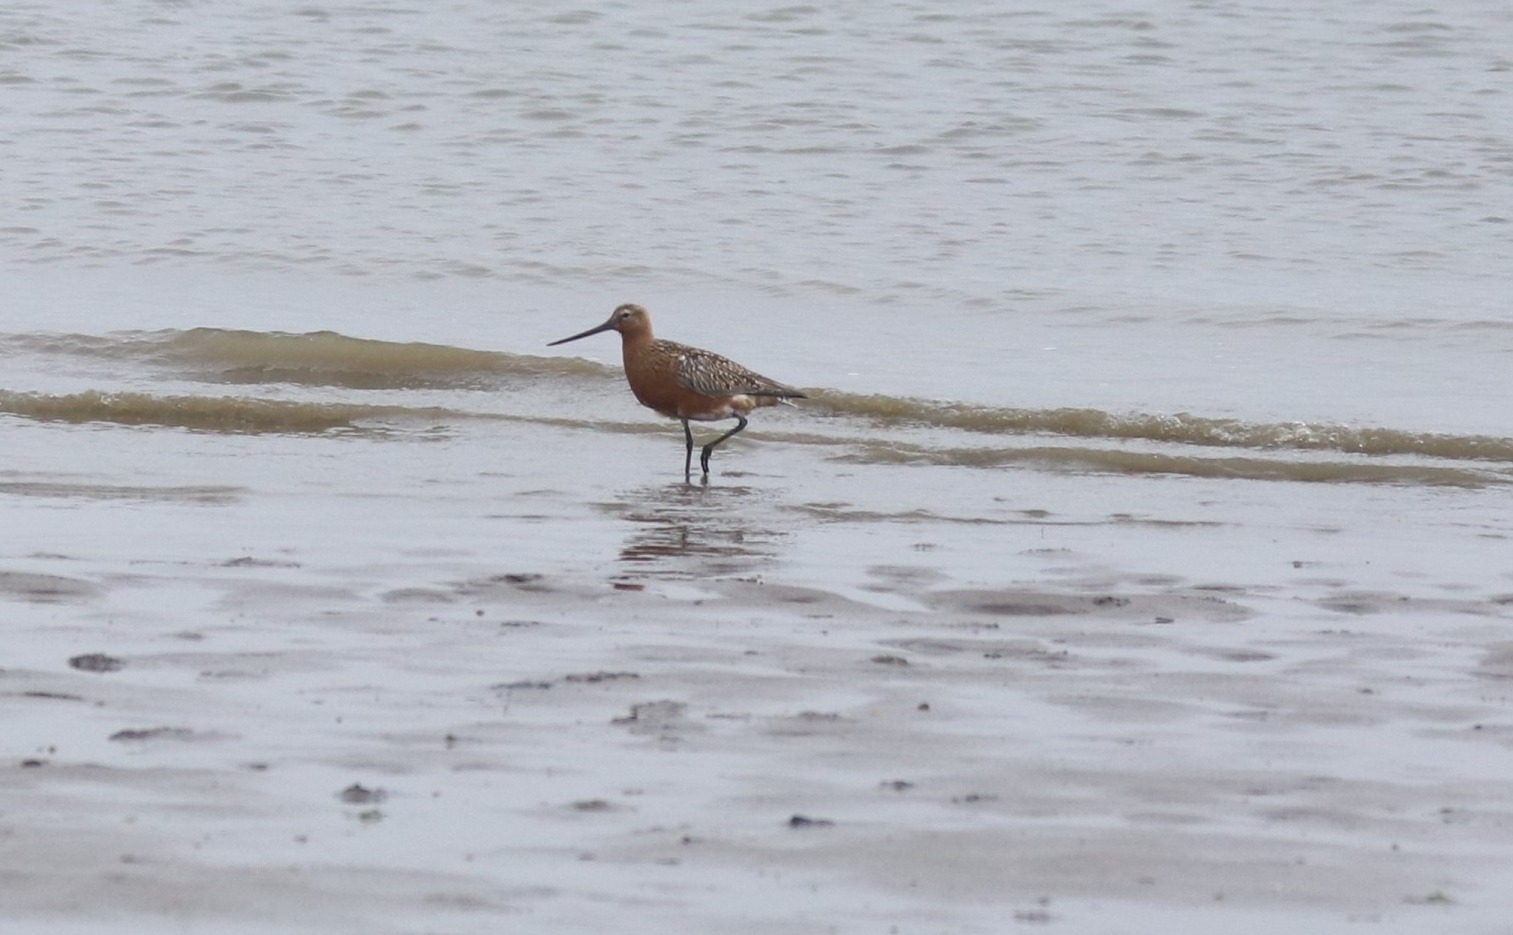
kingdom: Animalia
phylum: Chordata
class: Aves
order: Charadriiformes
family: Scolopacidae
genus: Limosa
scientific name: Limosa lapponica
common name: Lille kobbersneppe
